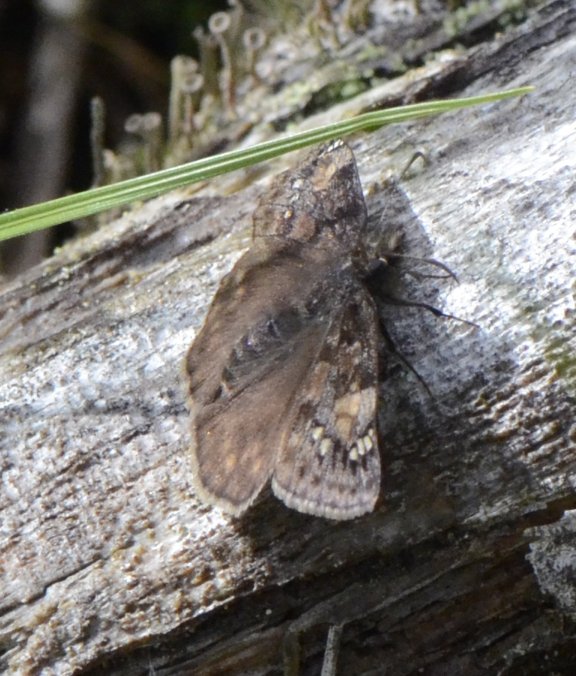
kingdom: Animalia
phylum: Arthropoda
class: Insecta
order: Lepidoptera
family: Hesperiidae
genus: Gesta
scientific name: Gesta
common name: Juvenal's Duskywing
